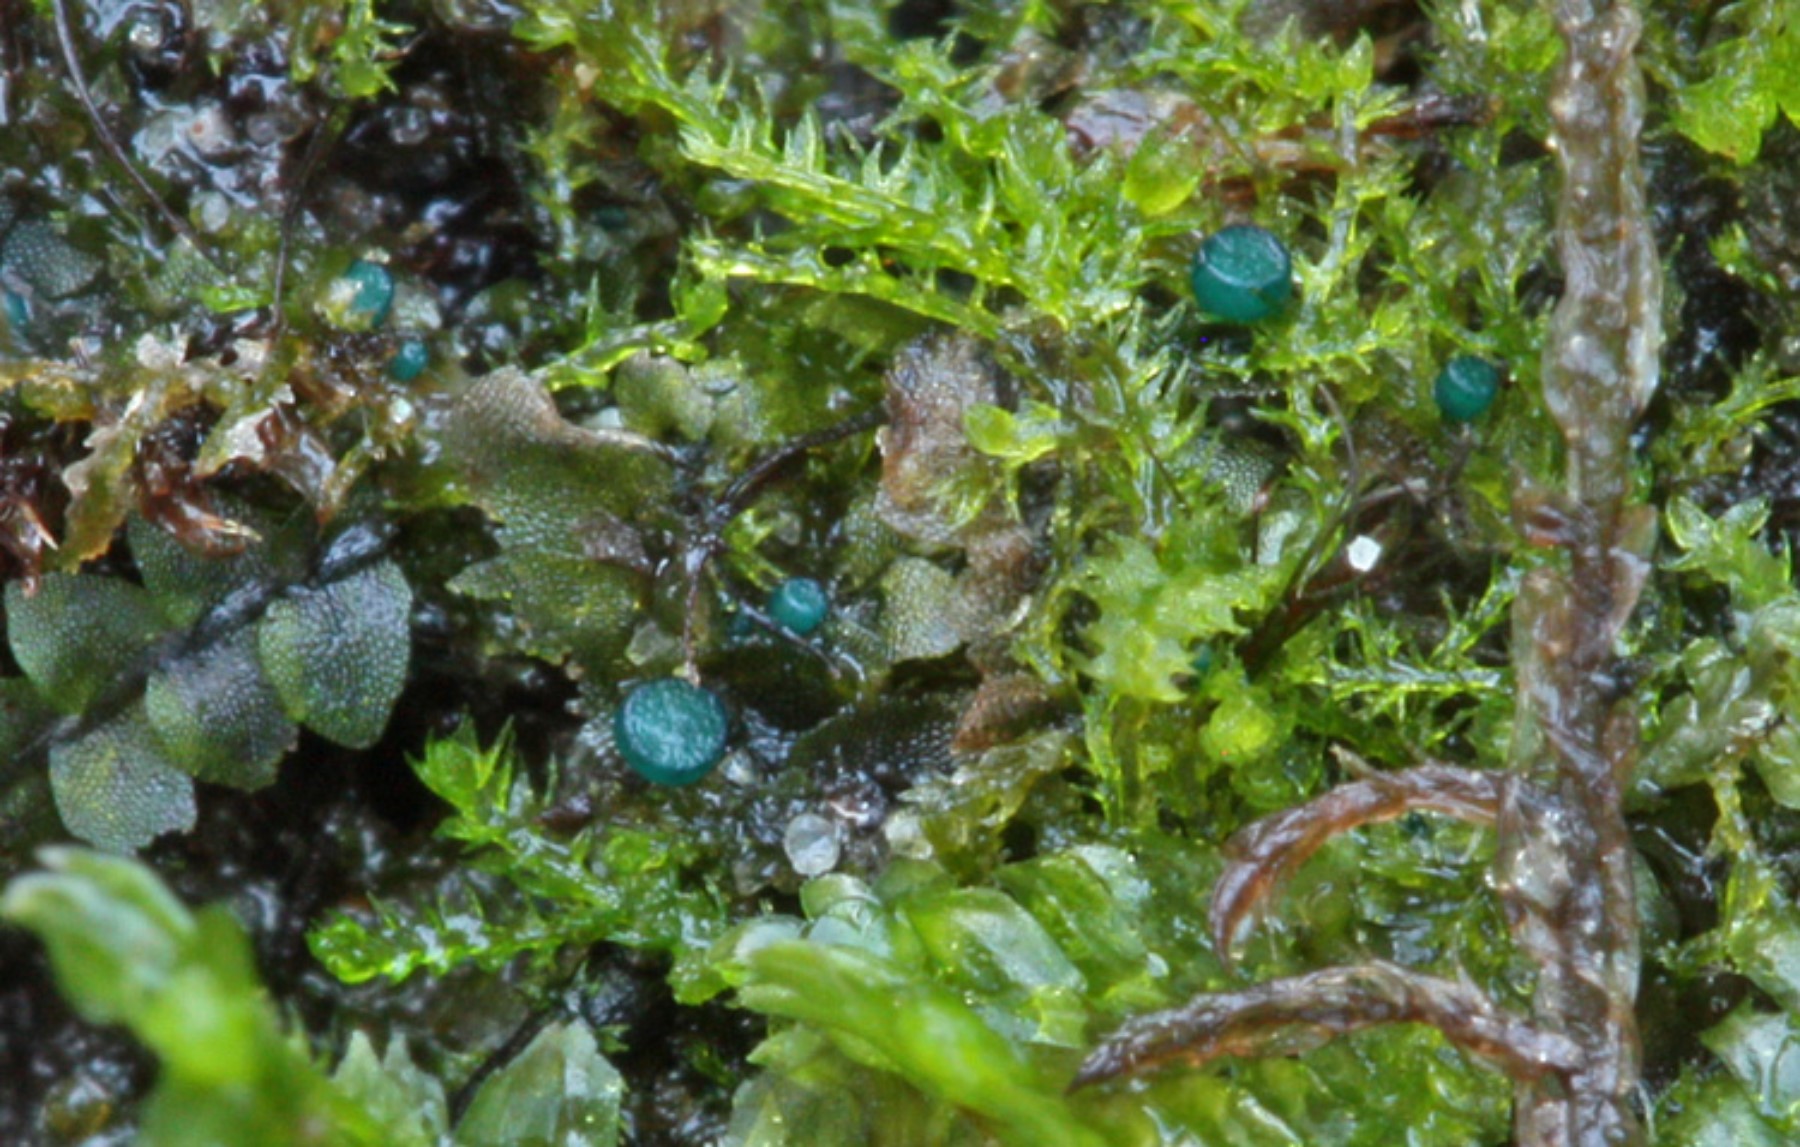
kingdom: Fungi
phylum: Ascomycota
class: Leotiomycetes
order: Leotiales
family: Mniaeciaceae
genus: Mniaecia
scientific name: Mniaecia jungermanniae
